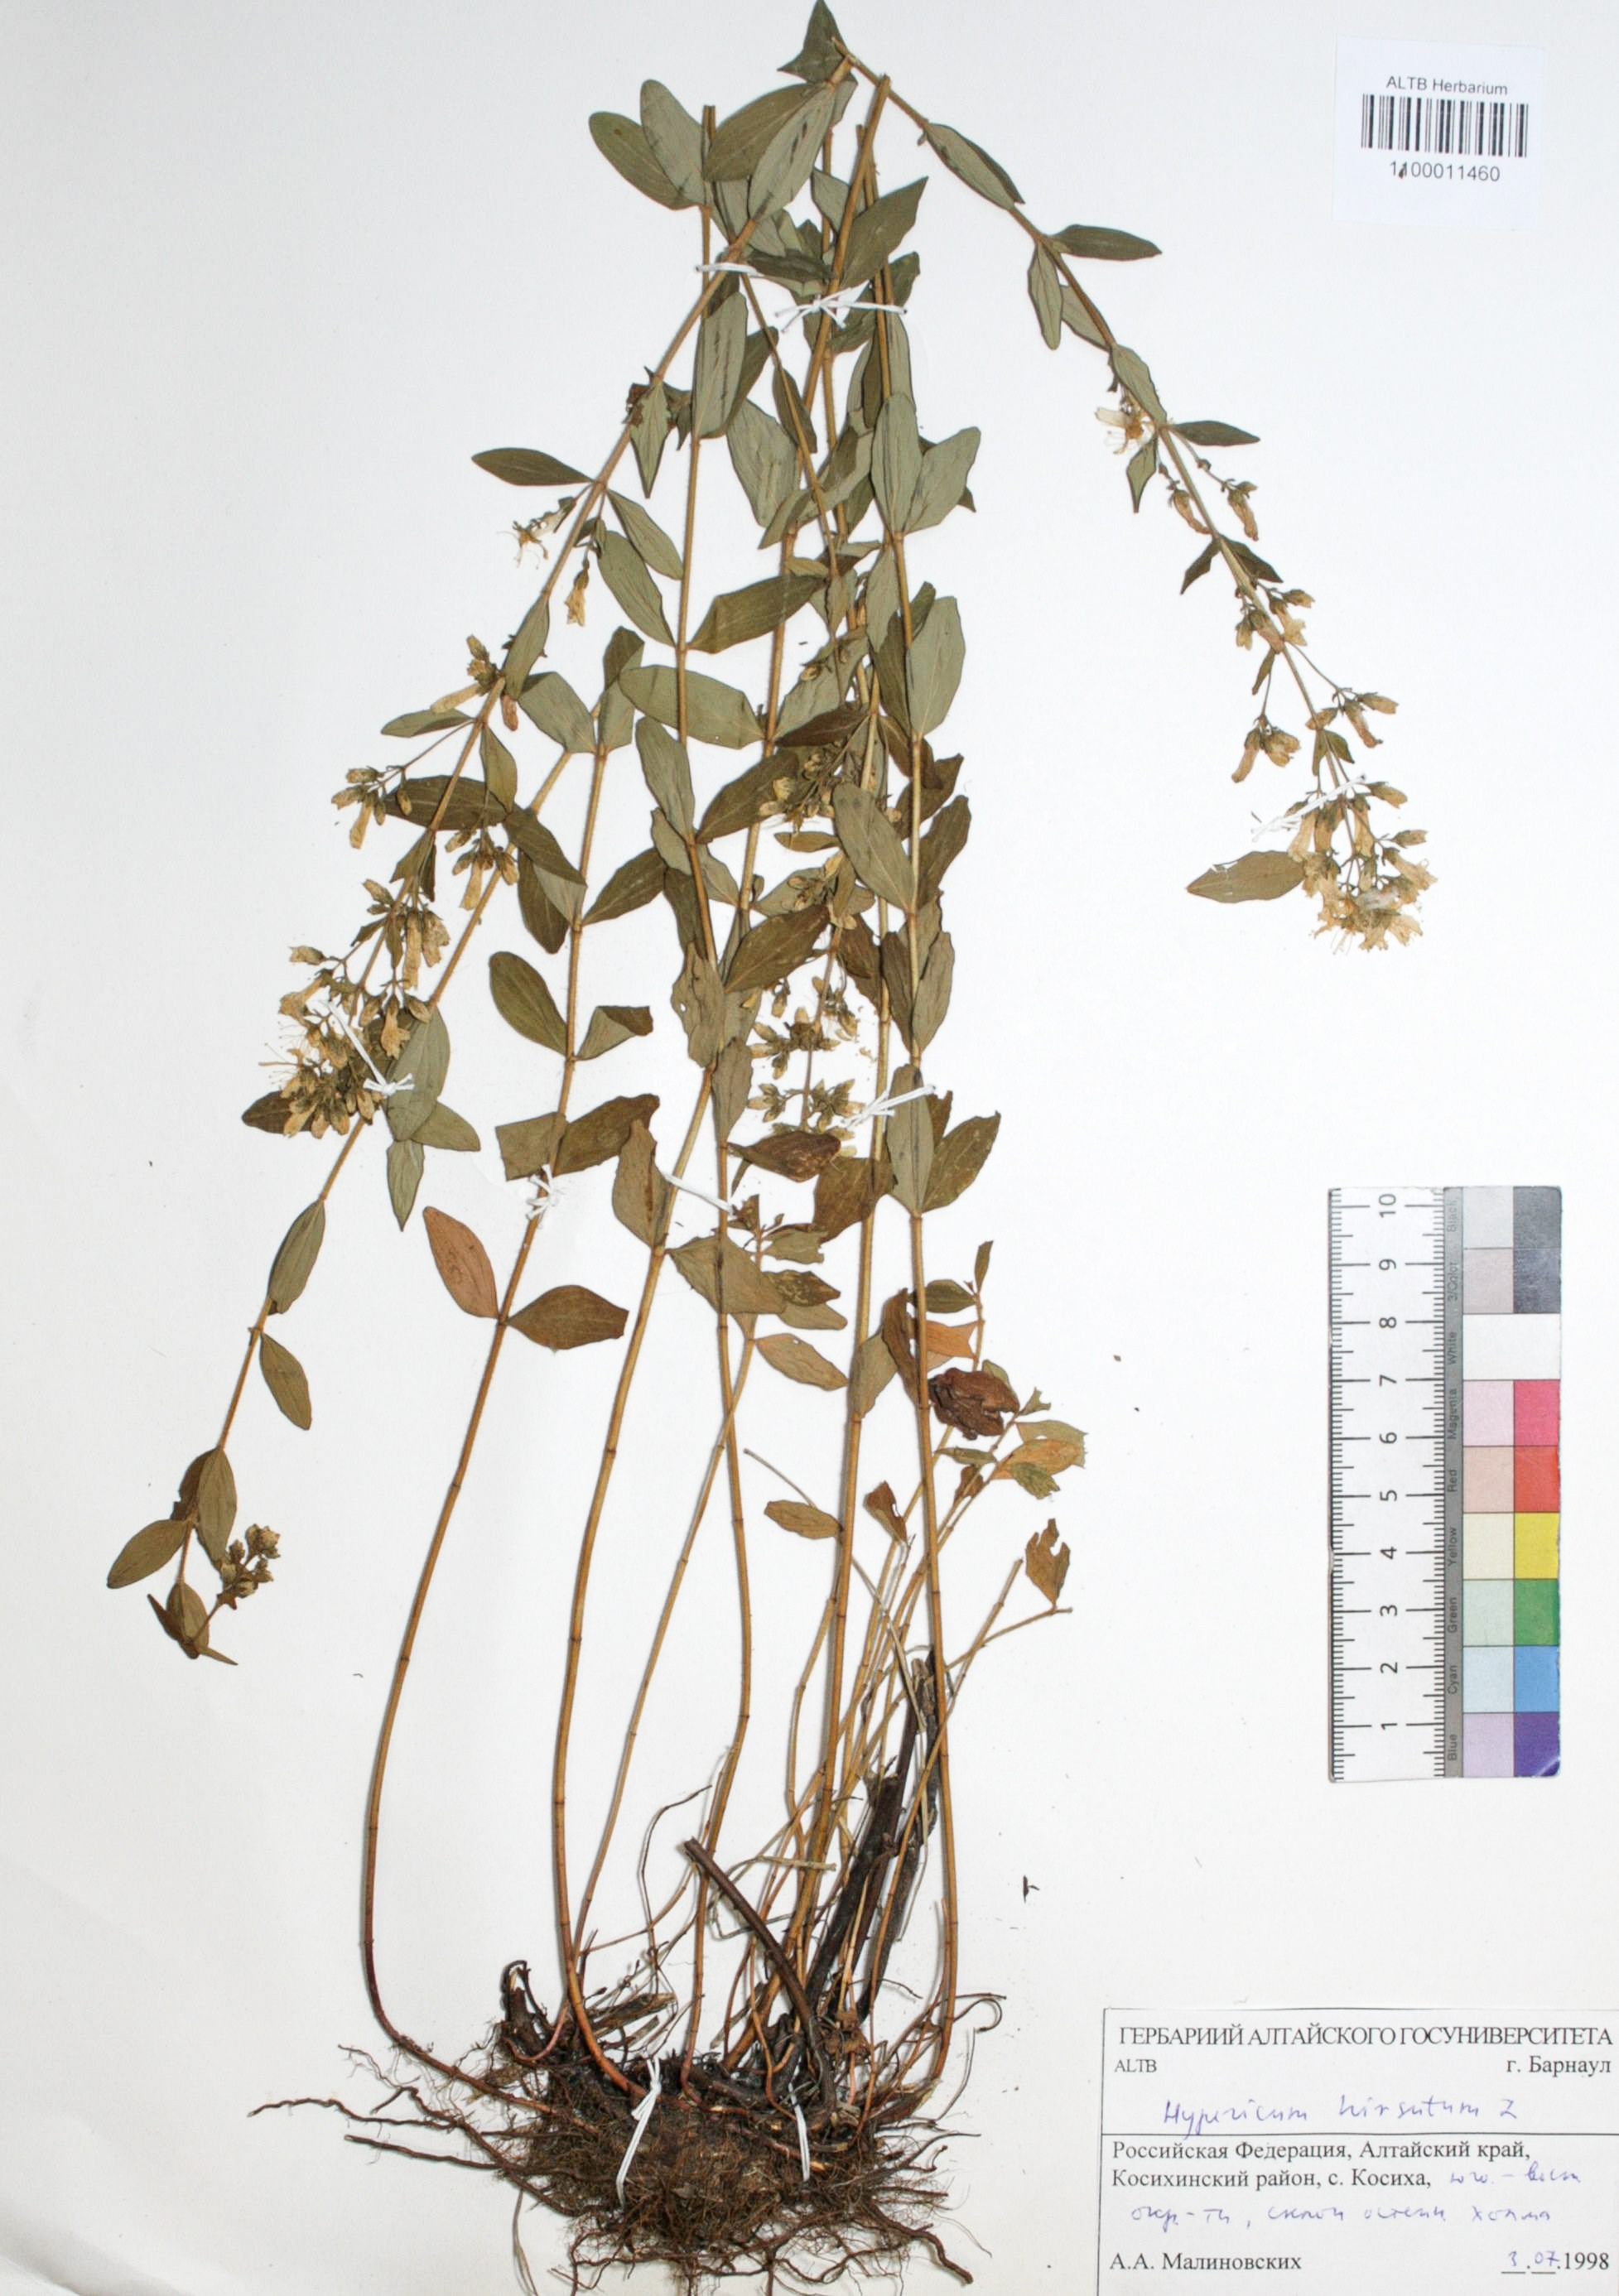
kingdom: Plantae
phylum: Tracheophyta
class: Magnoliopsida
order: Malpighiales
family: Hypericaceae
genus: Hypericum
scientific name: Hypericum hirsutum
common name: Hairy st. john's-wort
